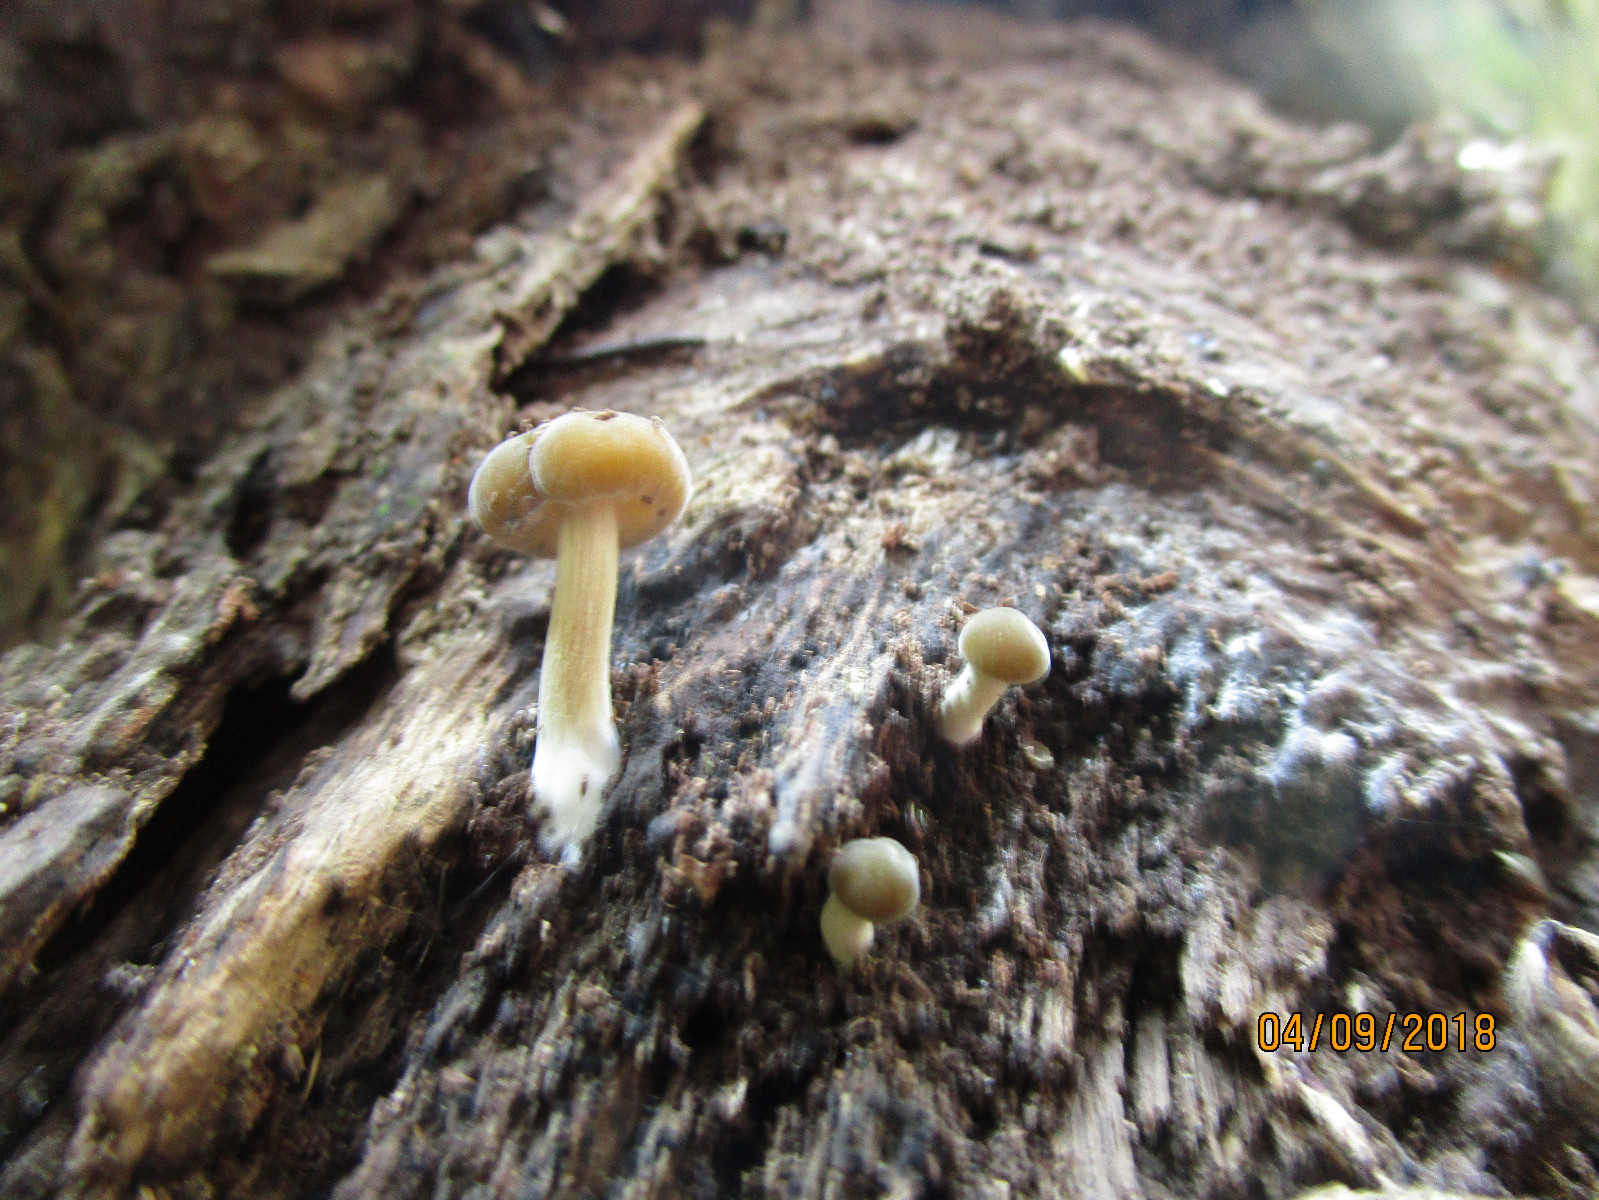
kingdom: Fungi
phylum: Basidiomycota
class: Agaricomycetes
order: Agaricales
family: Crepidotaceae
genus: Simocybe
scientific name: Simocybe sumptuosa
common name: stor skyggehat
